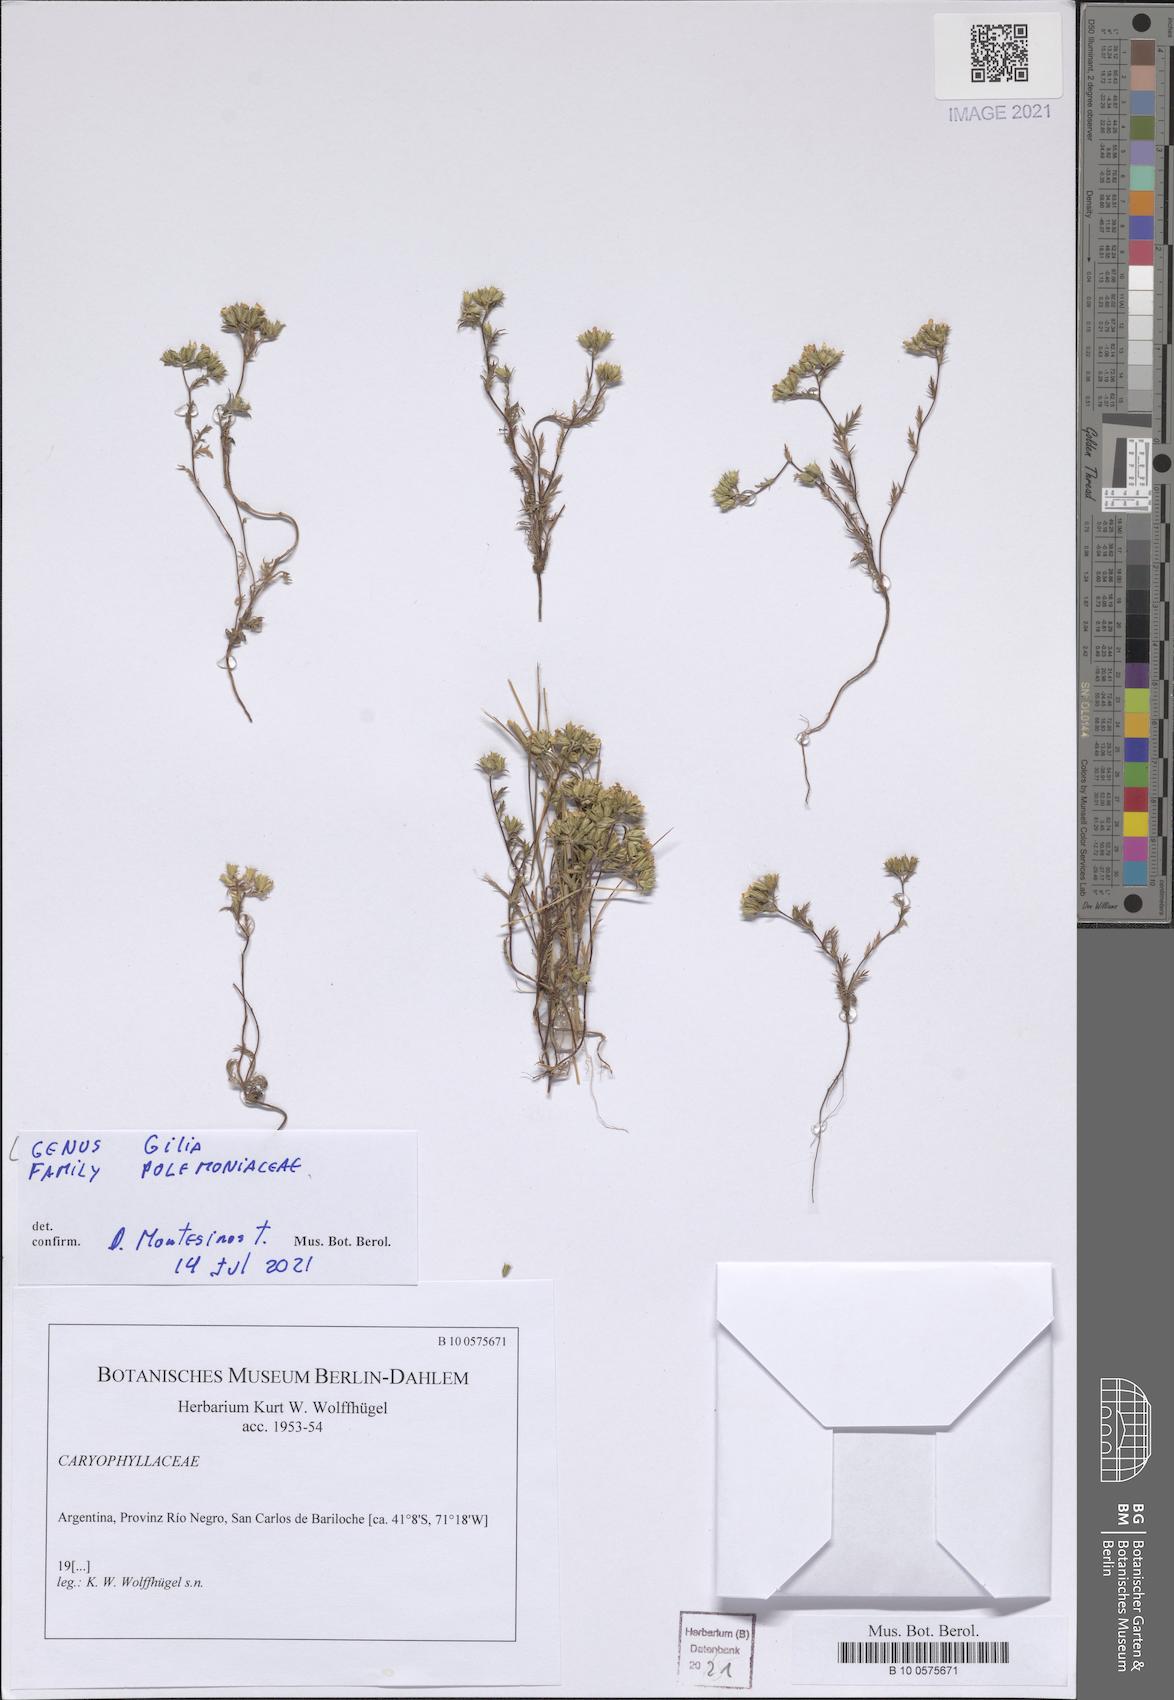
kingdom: Plantae
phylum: Tracheophyta
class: Magnoliopsida
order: Ericales
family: Polemoniaceae
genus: Gilia
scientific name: Gilia
